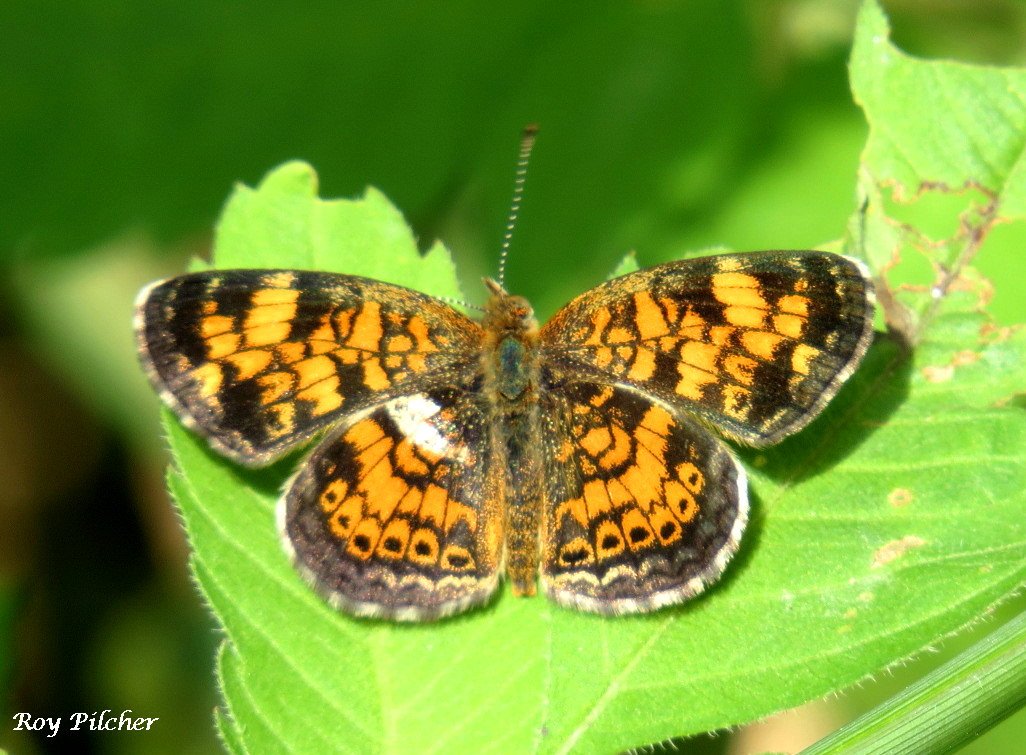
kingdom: Animalia
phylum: Arthropoda
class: Insecta
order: Lepidoptera
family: Nymphalidae
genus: Phyciodes
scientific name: Phyciodes tharos
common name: Pearl Crescent
